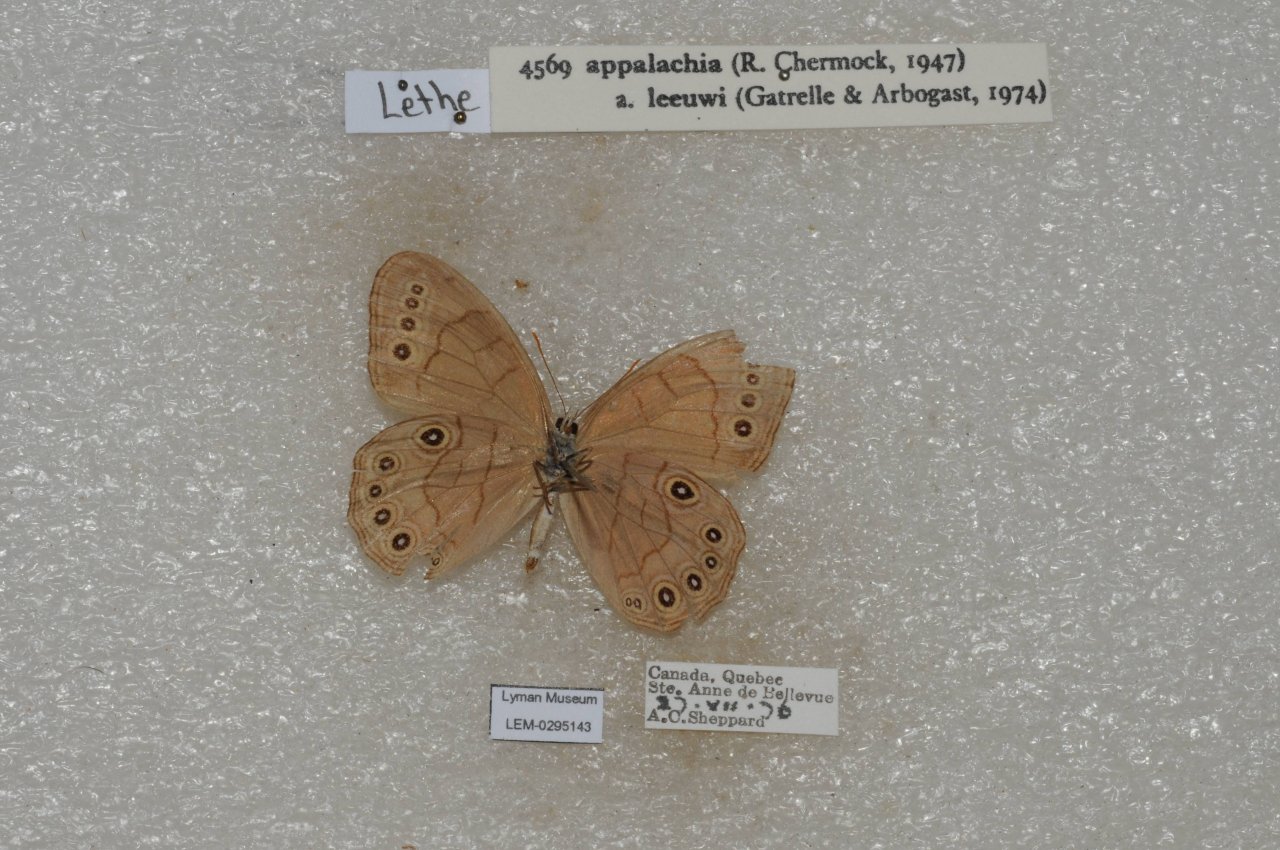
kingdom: Animalia
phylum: Arthropoda
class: Insecta
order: Lepidoptera
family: Nymphalidae
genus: Lethe
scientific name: Lethe eurydice
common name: Appalachian Eyed Brown
